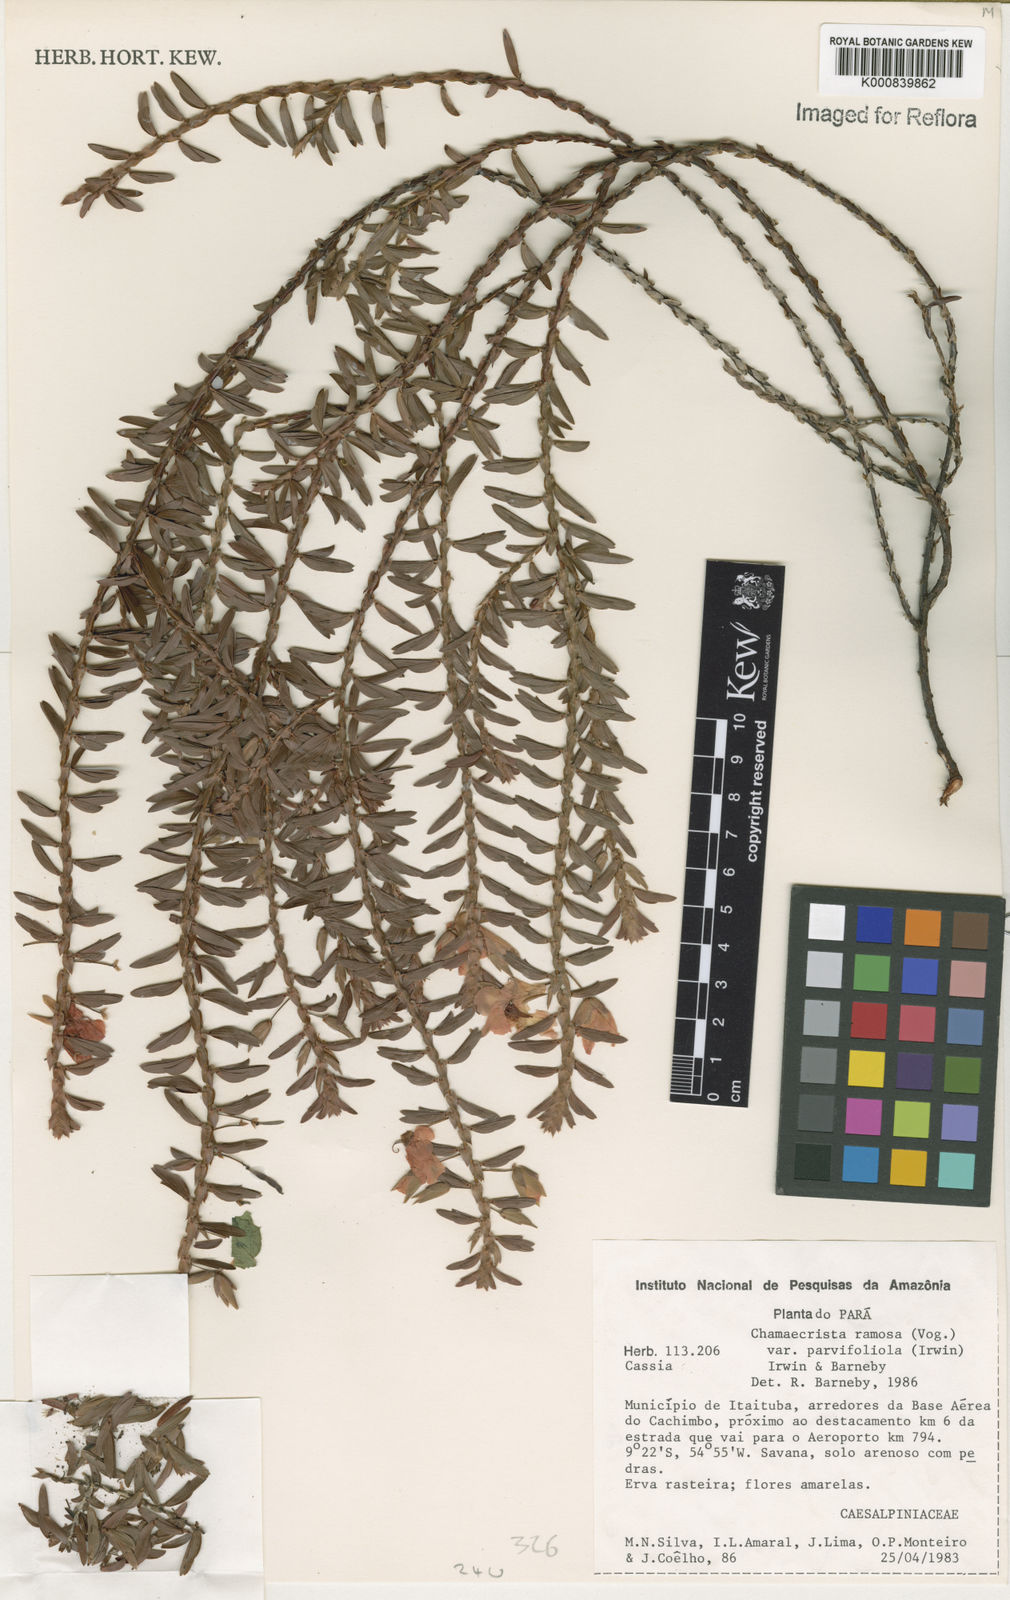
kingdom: Plantae
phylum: Tracheophyta
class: Magnoliopsida
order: Fabales
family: Fabaceae
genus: Chamaecrista
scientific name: Chamaecrista ramosa
